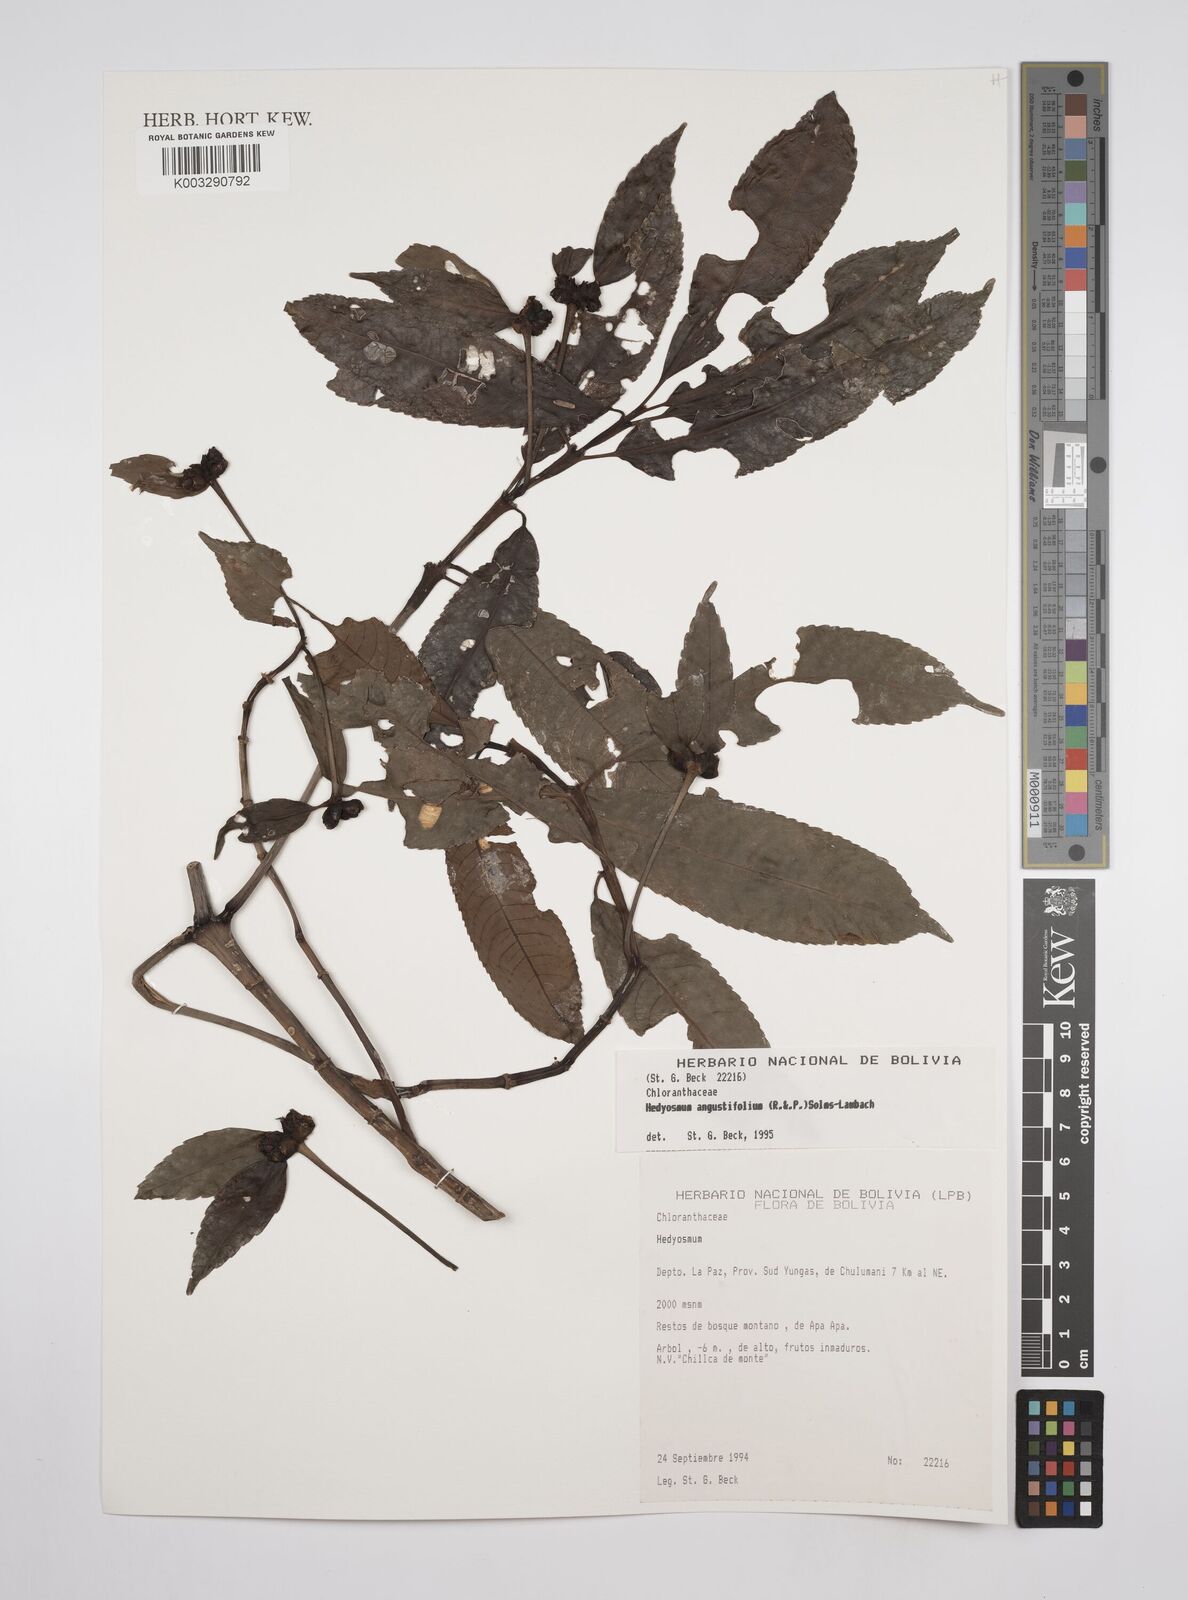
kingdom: Plantae
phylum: Tracheophyta
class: Magnoliopsida
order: Chloranthales
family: Chloranthaceae
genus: Hedyosmum
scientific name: Hedyosmum angustifolium
